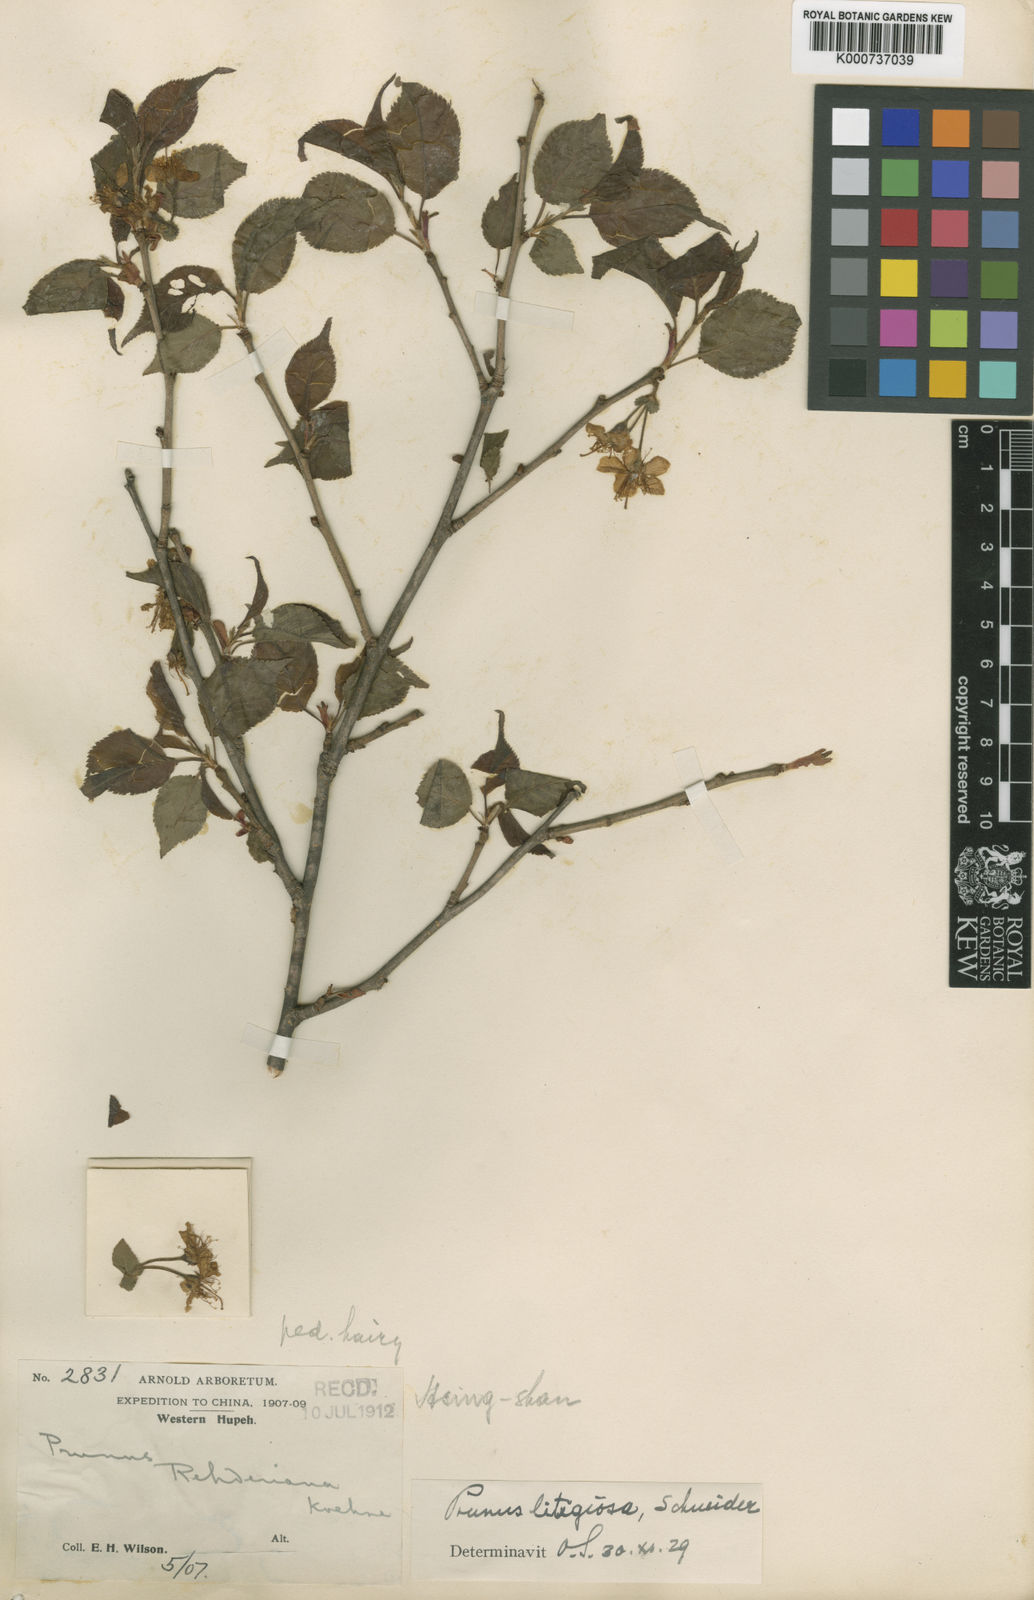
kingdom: Plantae
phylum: Tracheophyta
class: Magnoliopsida
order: Rosales
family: Rosaceae
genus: Prunus
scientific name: Prunus clarofolia
